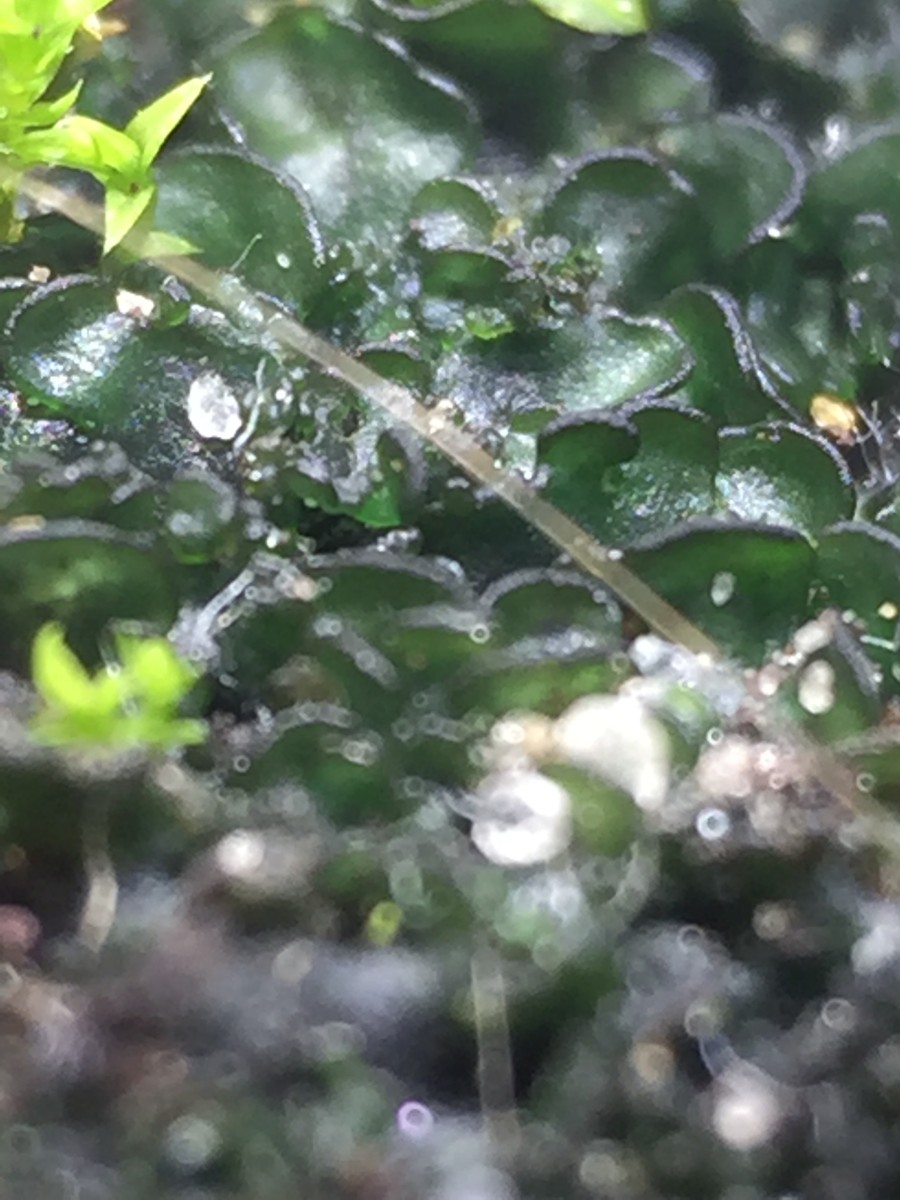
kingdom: Fungi
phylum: Ascomycota
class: Lecanoromycetes
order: Peltigerales
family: Collemataceae
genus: Blennothallia
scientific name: Blennothallia crispa
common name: kruset bævrelav
